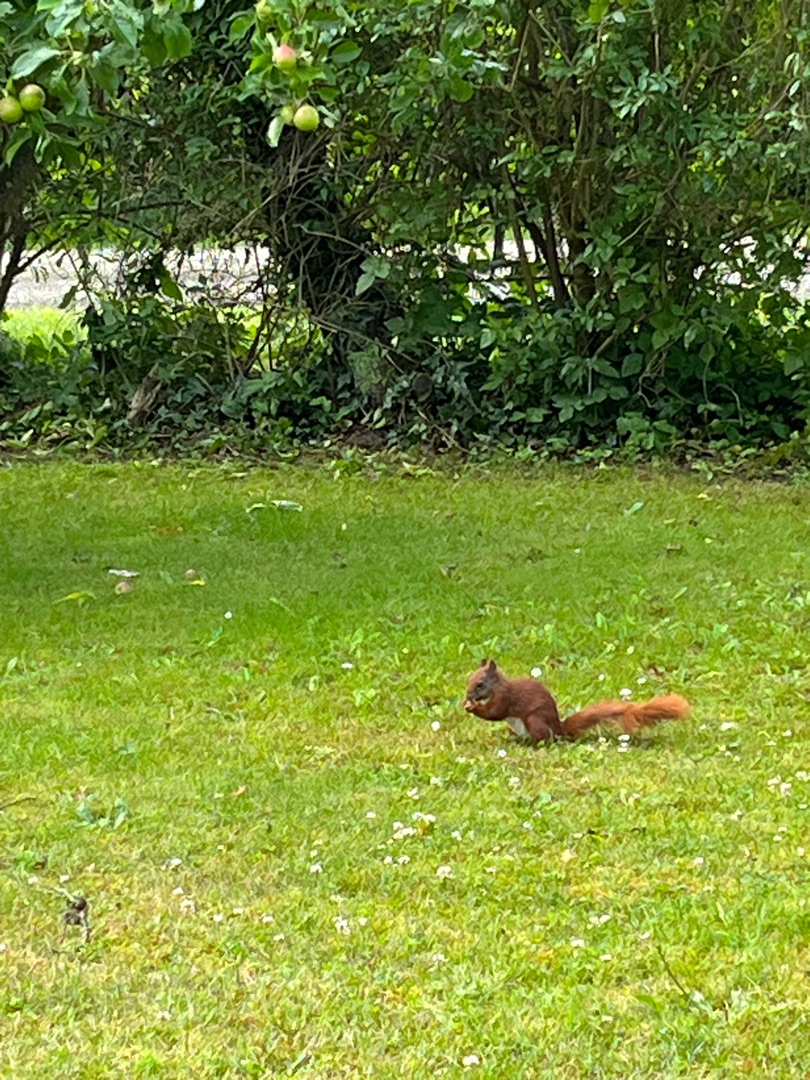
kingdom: Animalia
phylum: Chordata
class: Mammalia
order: Rodentia
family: Sciuridae
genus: Sciurus
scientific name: Sciurus vulgaris
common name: Egern
